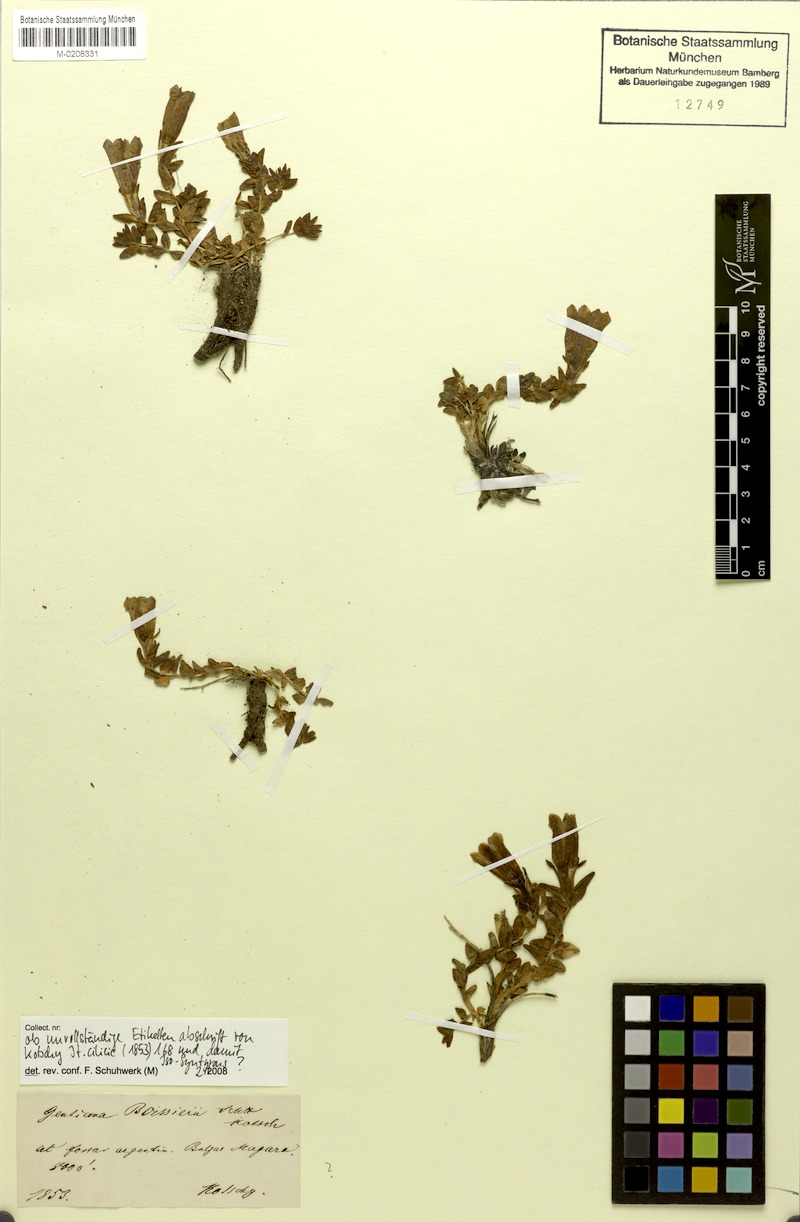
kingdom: Plantae
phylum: Tracheophyta
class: Magnoliopsida
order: Gentianales
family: Gentianaceae
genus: Gentiana
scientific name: Gentiana boissieri
